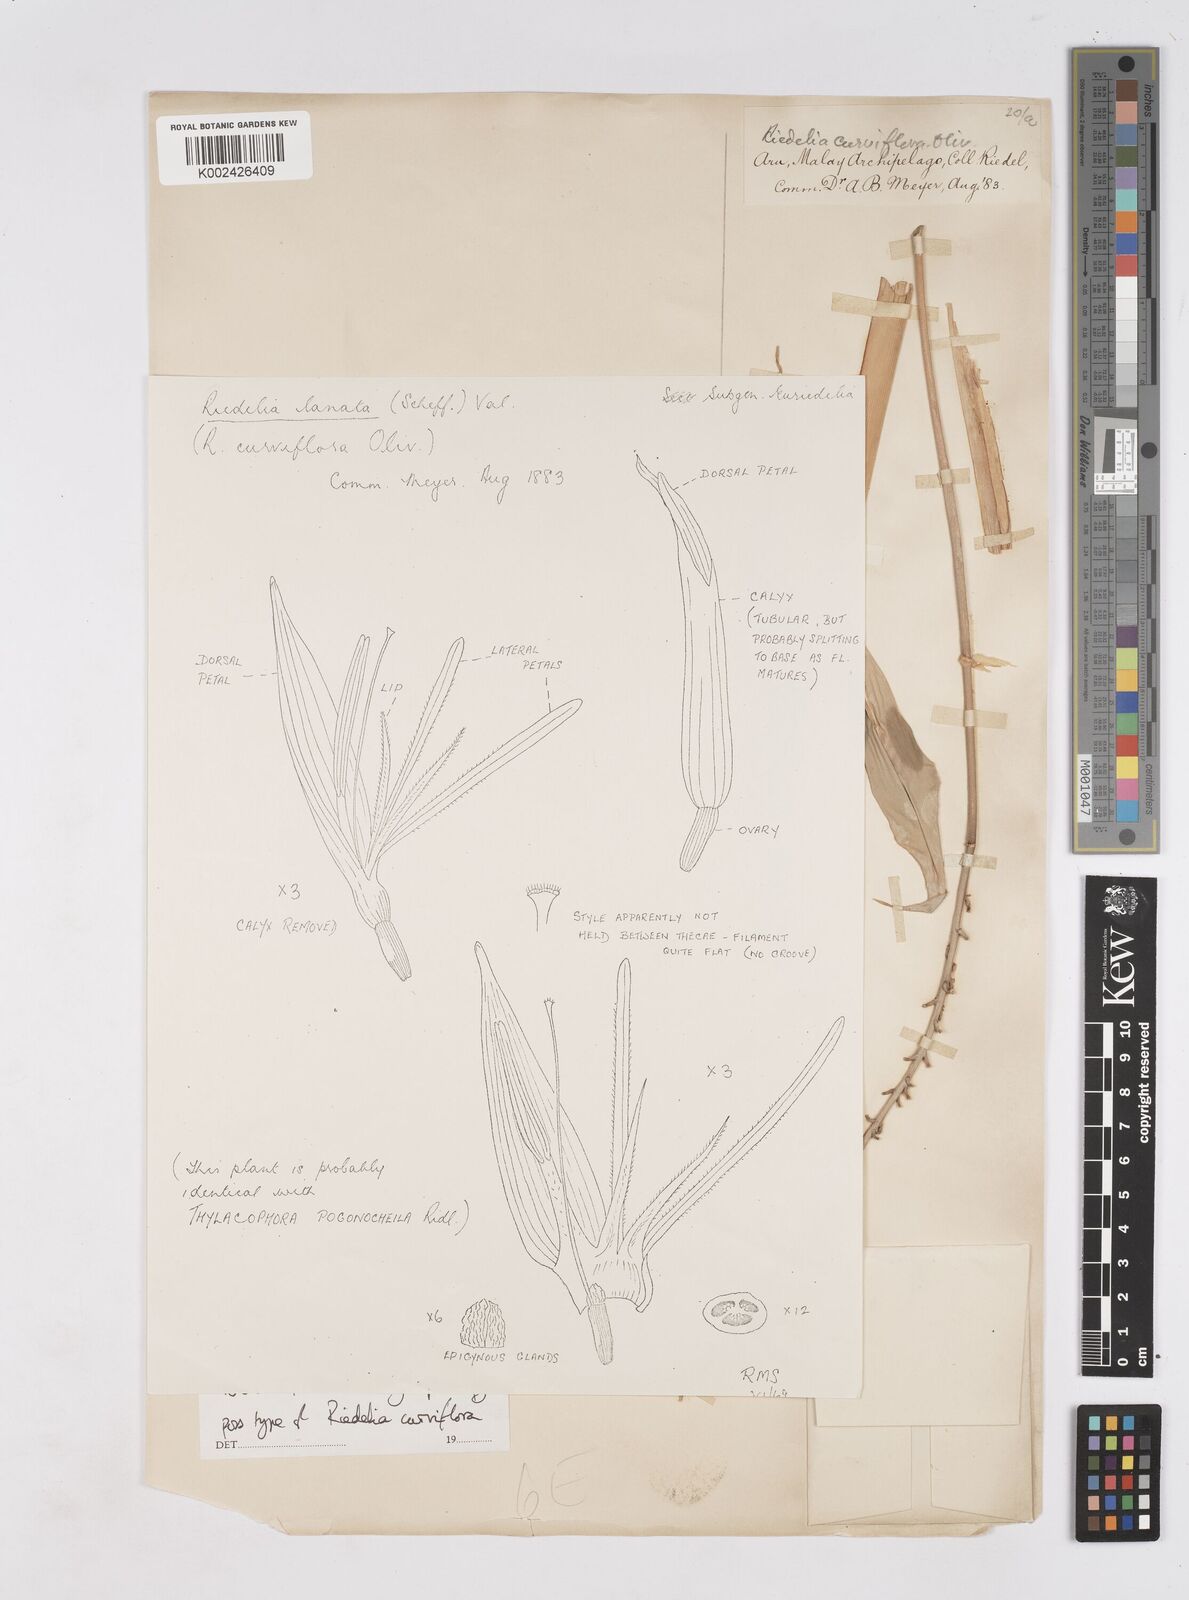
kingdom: Plantae
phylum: Tracheophyta
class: Liliopsida
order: Zingiberales
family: Zingiberaceae
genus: Riedelia
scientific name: Riedelia lanata
